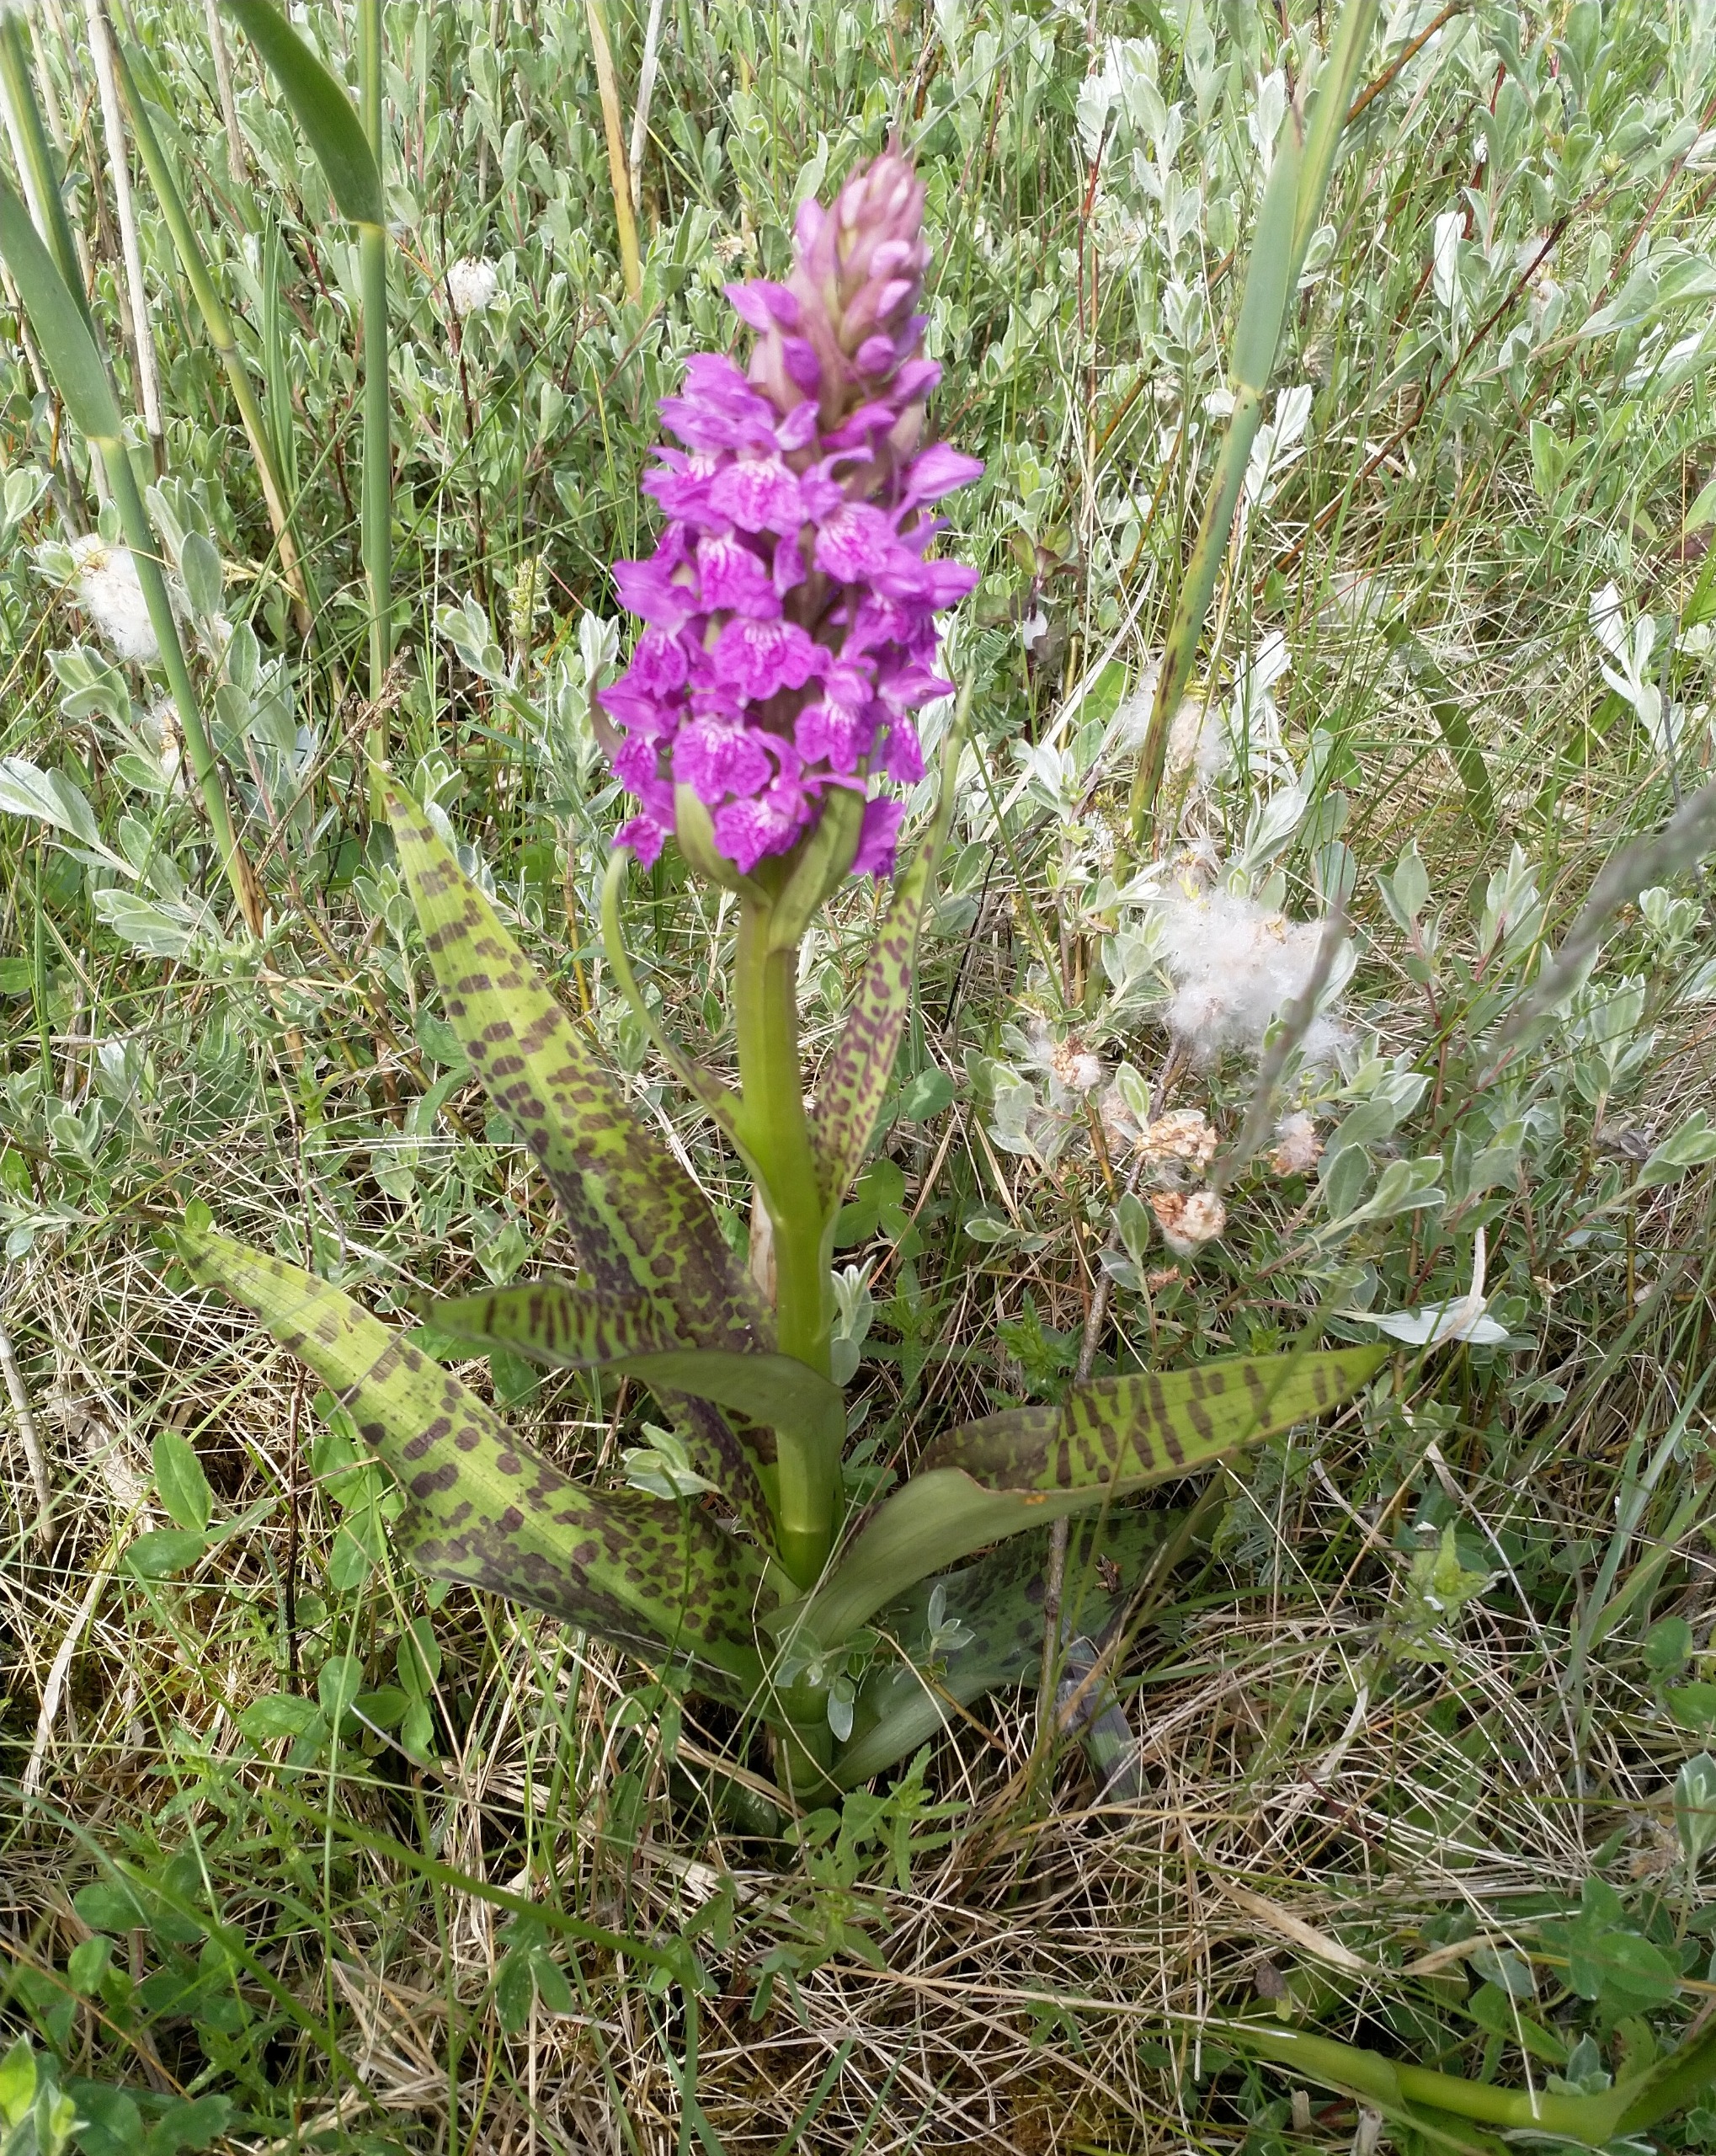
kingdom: Plantae
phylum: Tracheophyta
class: Liliopsida
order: Asparagales
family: Orchidaceae
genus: Dactylorhiza
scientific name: Dactylorhiza majalis
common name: Maj-gøgeurt
